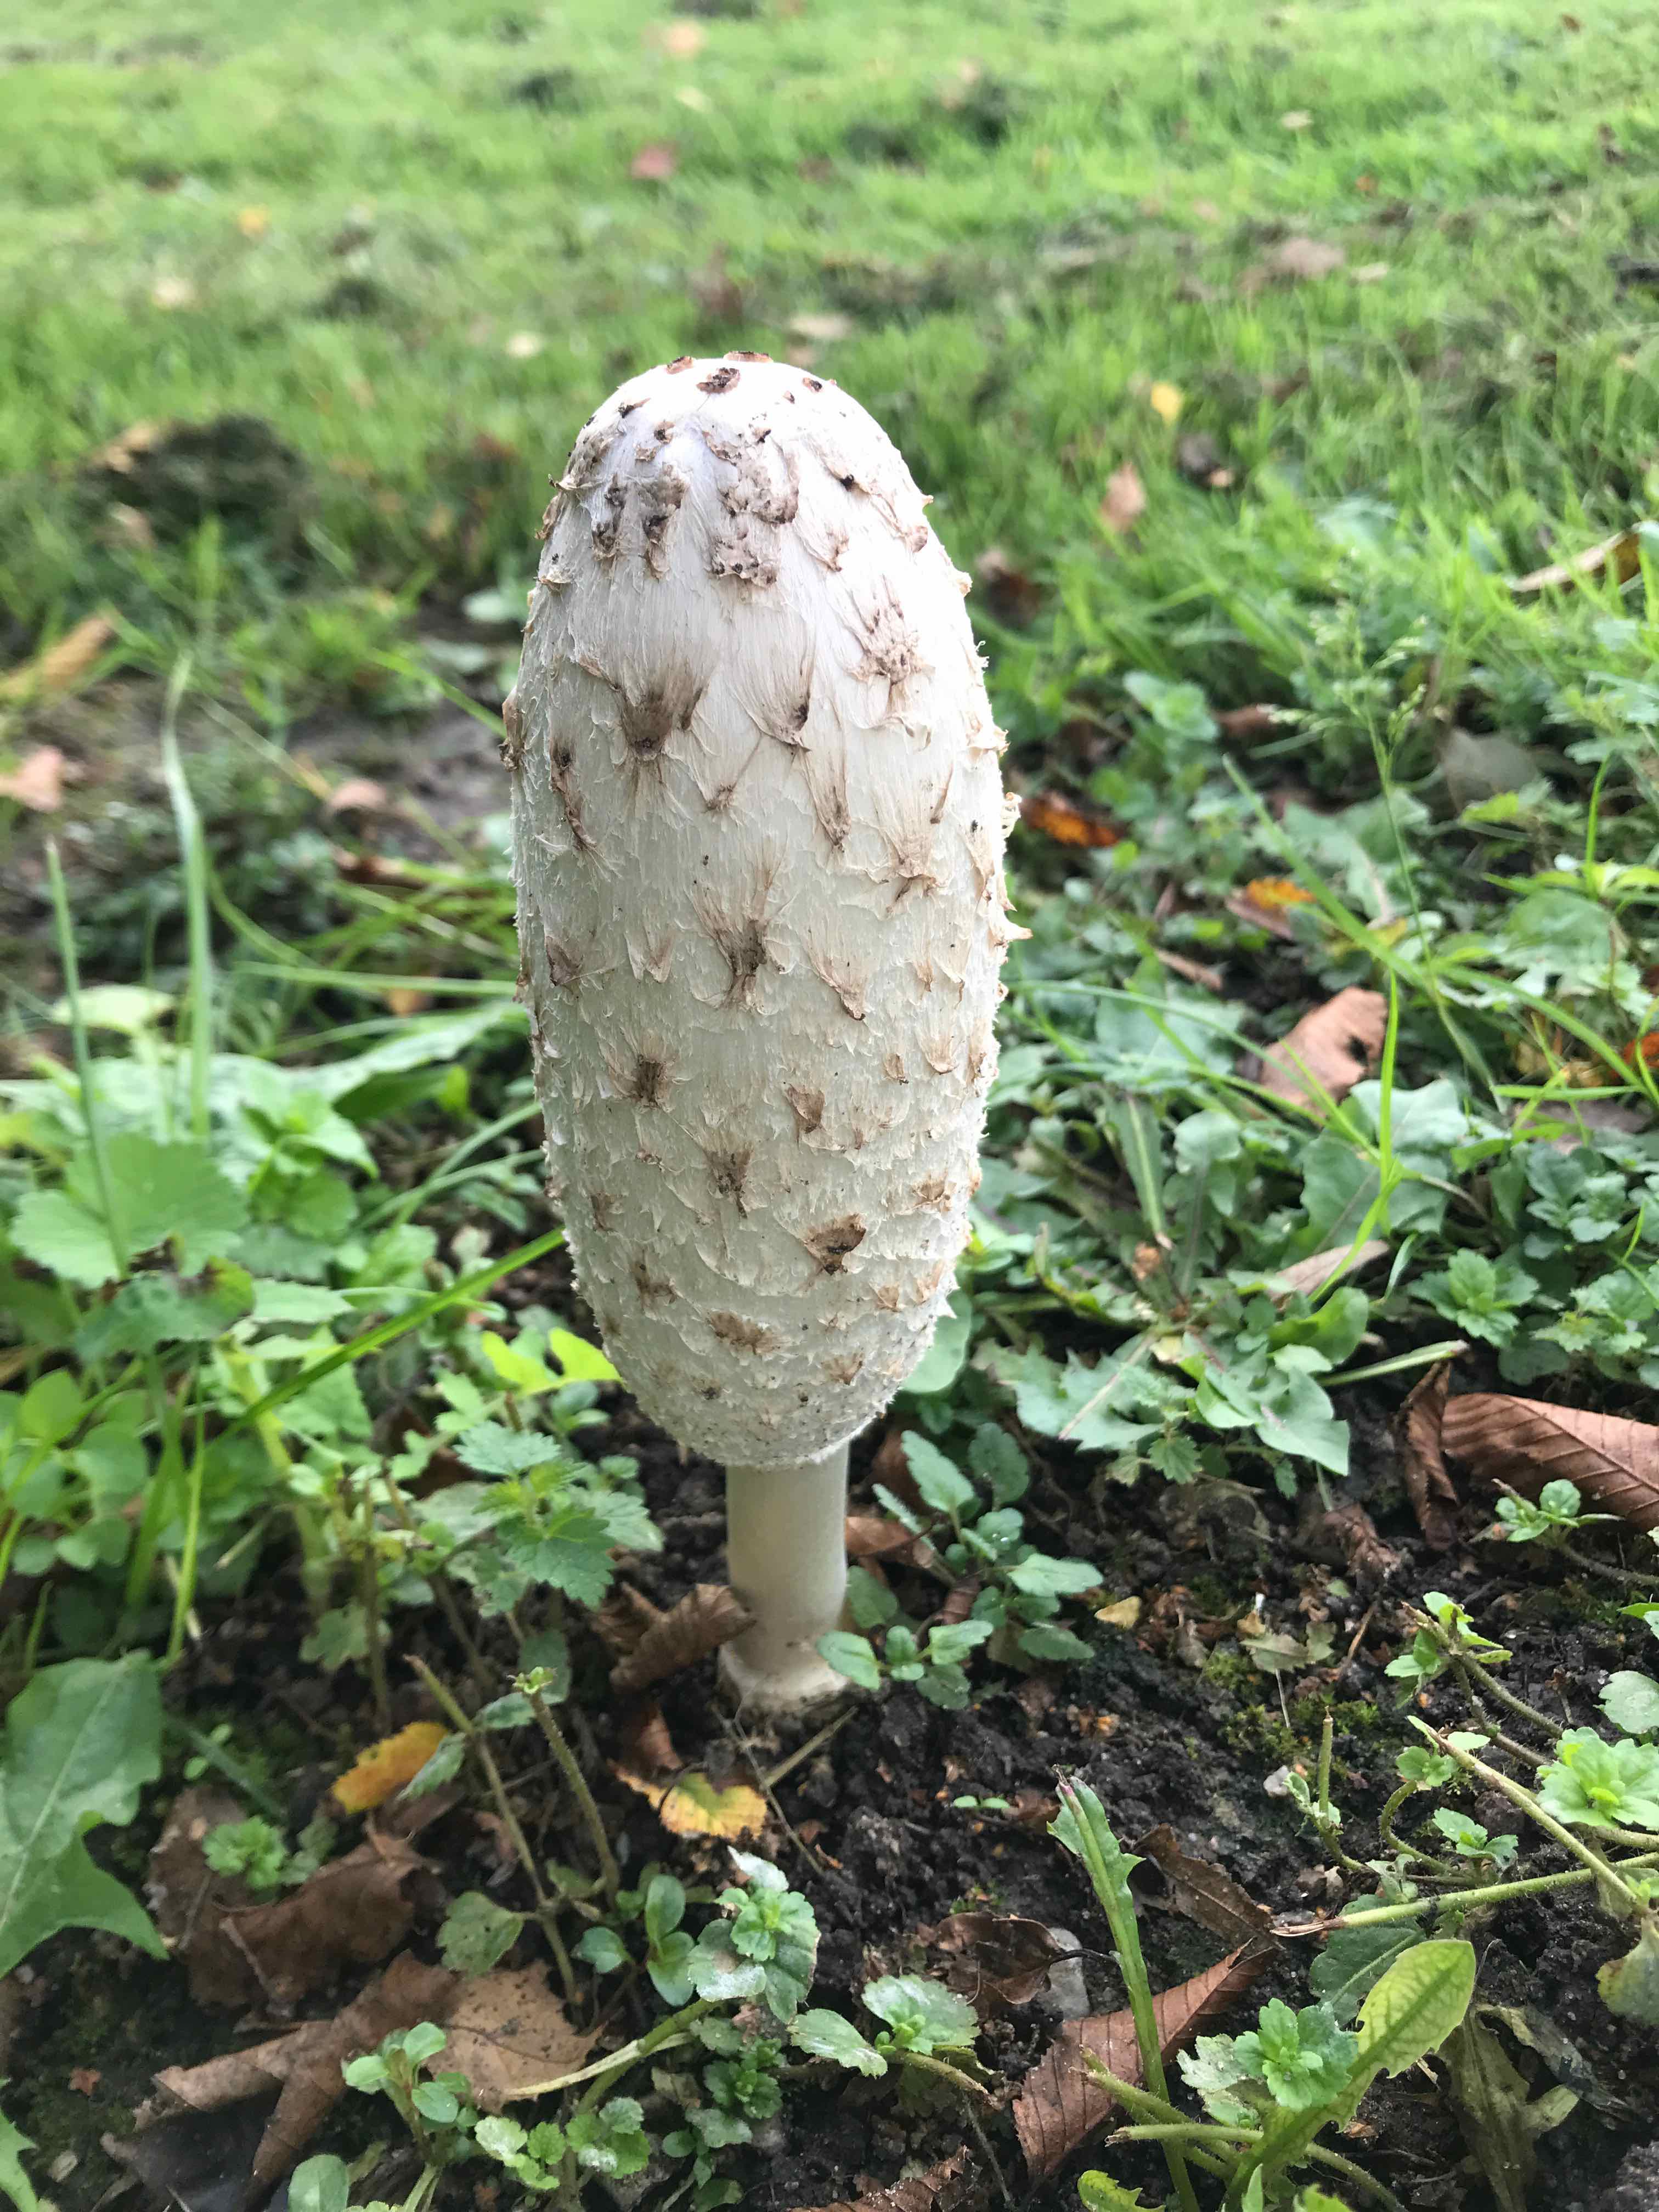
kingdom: Fungi
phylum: Basidiomycota
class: Agaricomycetes
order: Agaricales
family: Agaricaceae
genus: Coprinus
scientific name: Coprinus comatus
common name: stor parykhat
